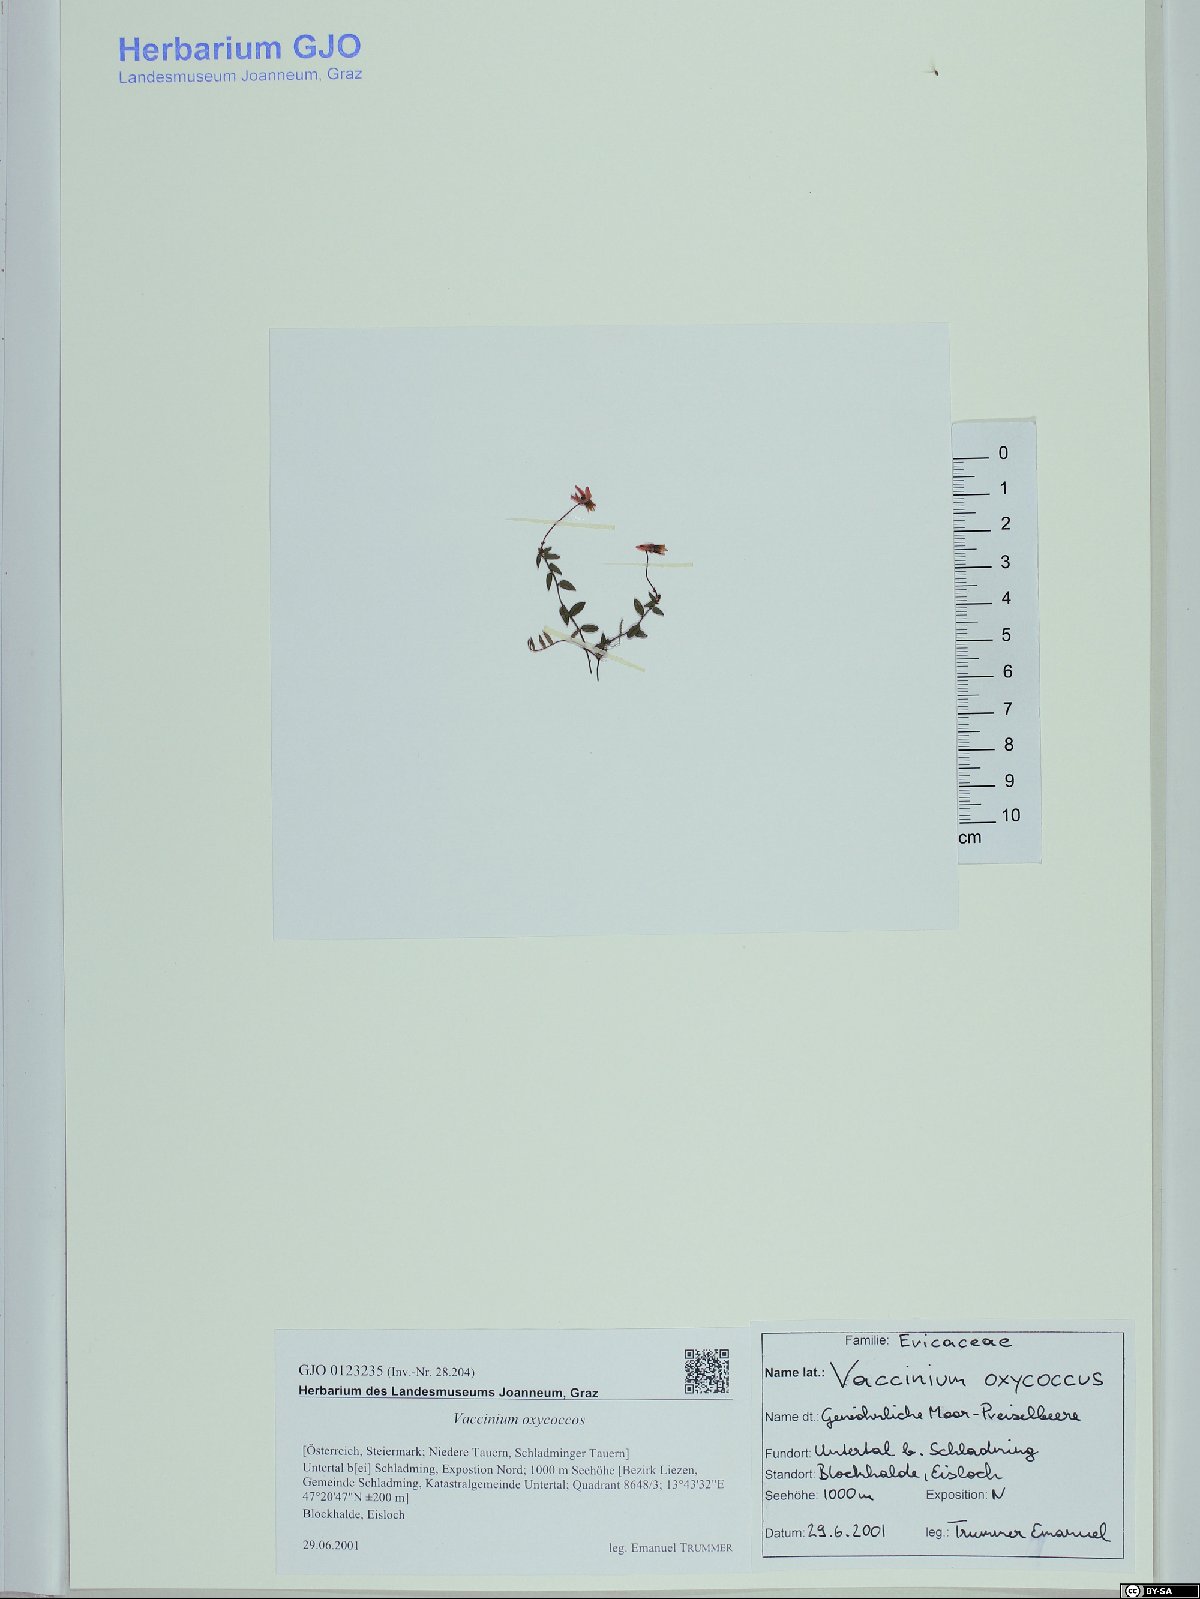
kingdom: Plantae
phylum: Tracheophyta
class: Magnoliopsida
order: Ericales
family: Ericaceae
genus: Vaccinium
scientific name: Vaccinium oxycoccos
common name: Cranberry
